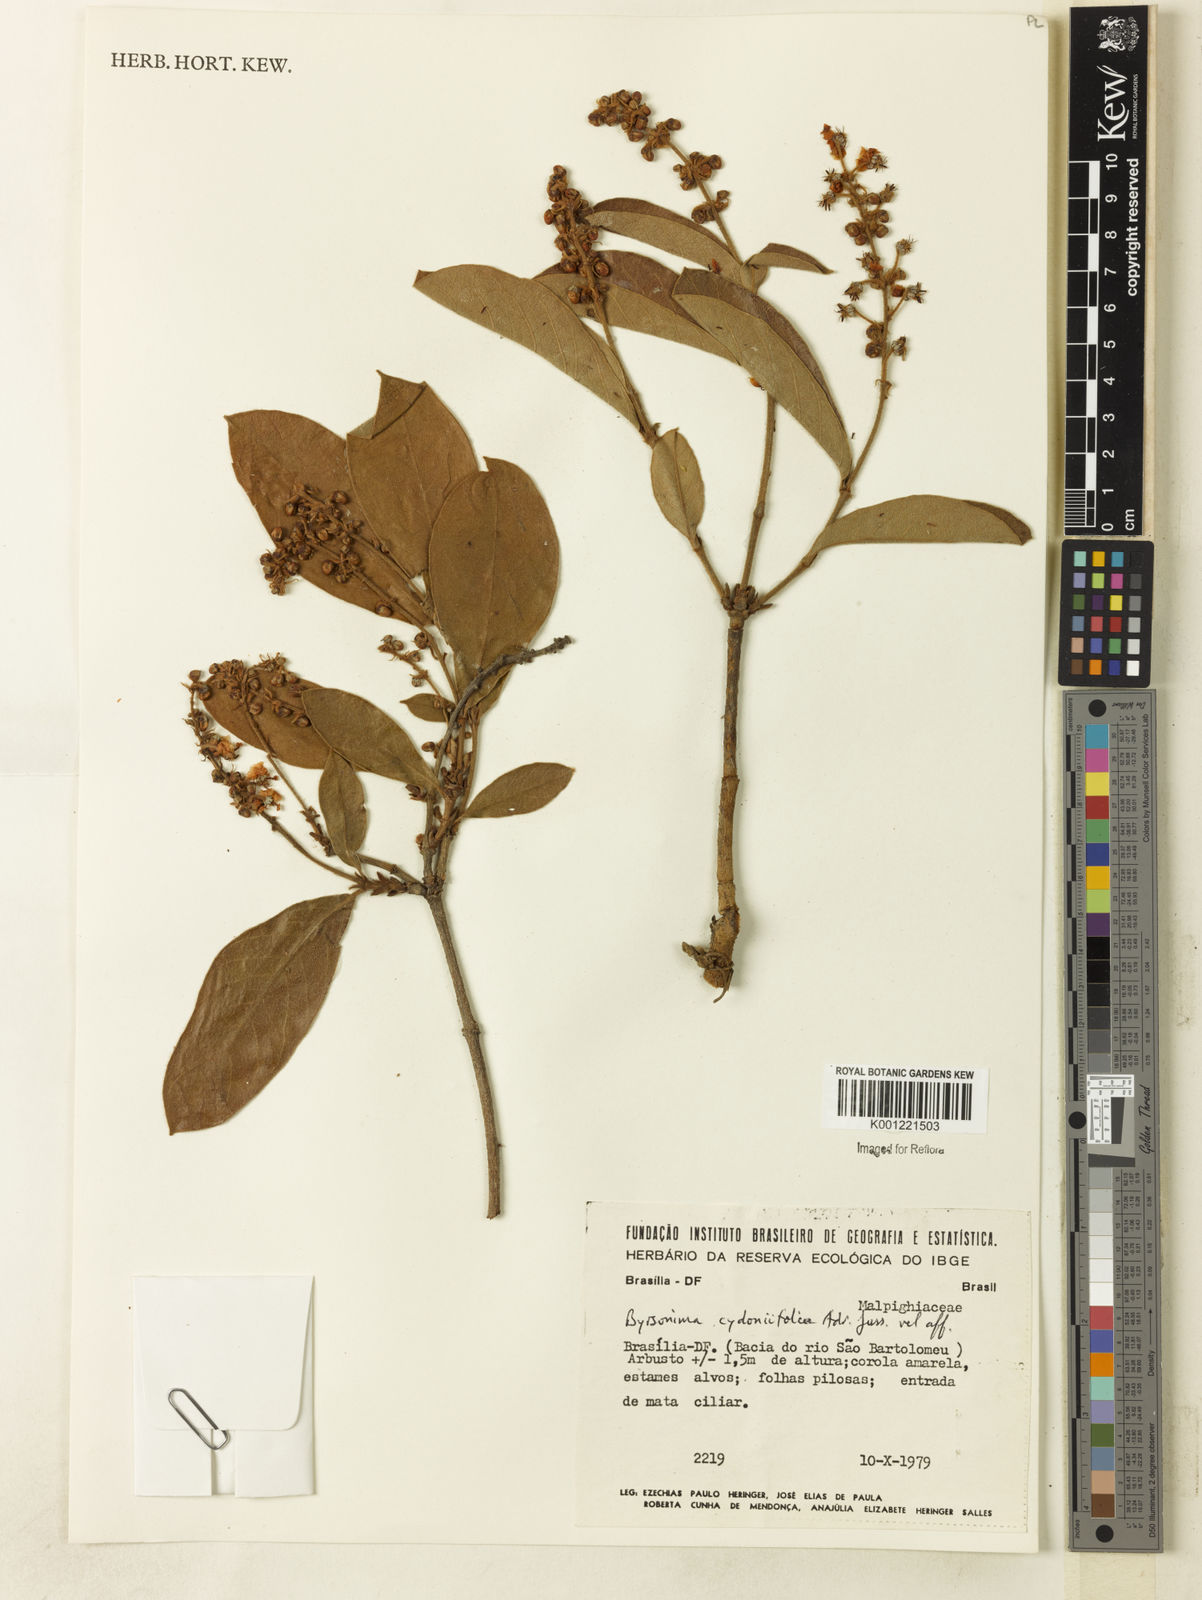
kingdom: Plantae
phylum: Tracheophyta
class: Magnoliopsida
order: Malpighiales
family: Malpighiaceae
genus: Byrsonima
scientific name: Byrsonima cydoniifolia
